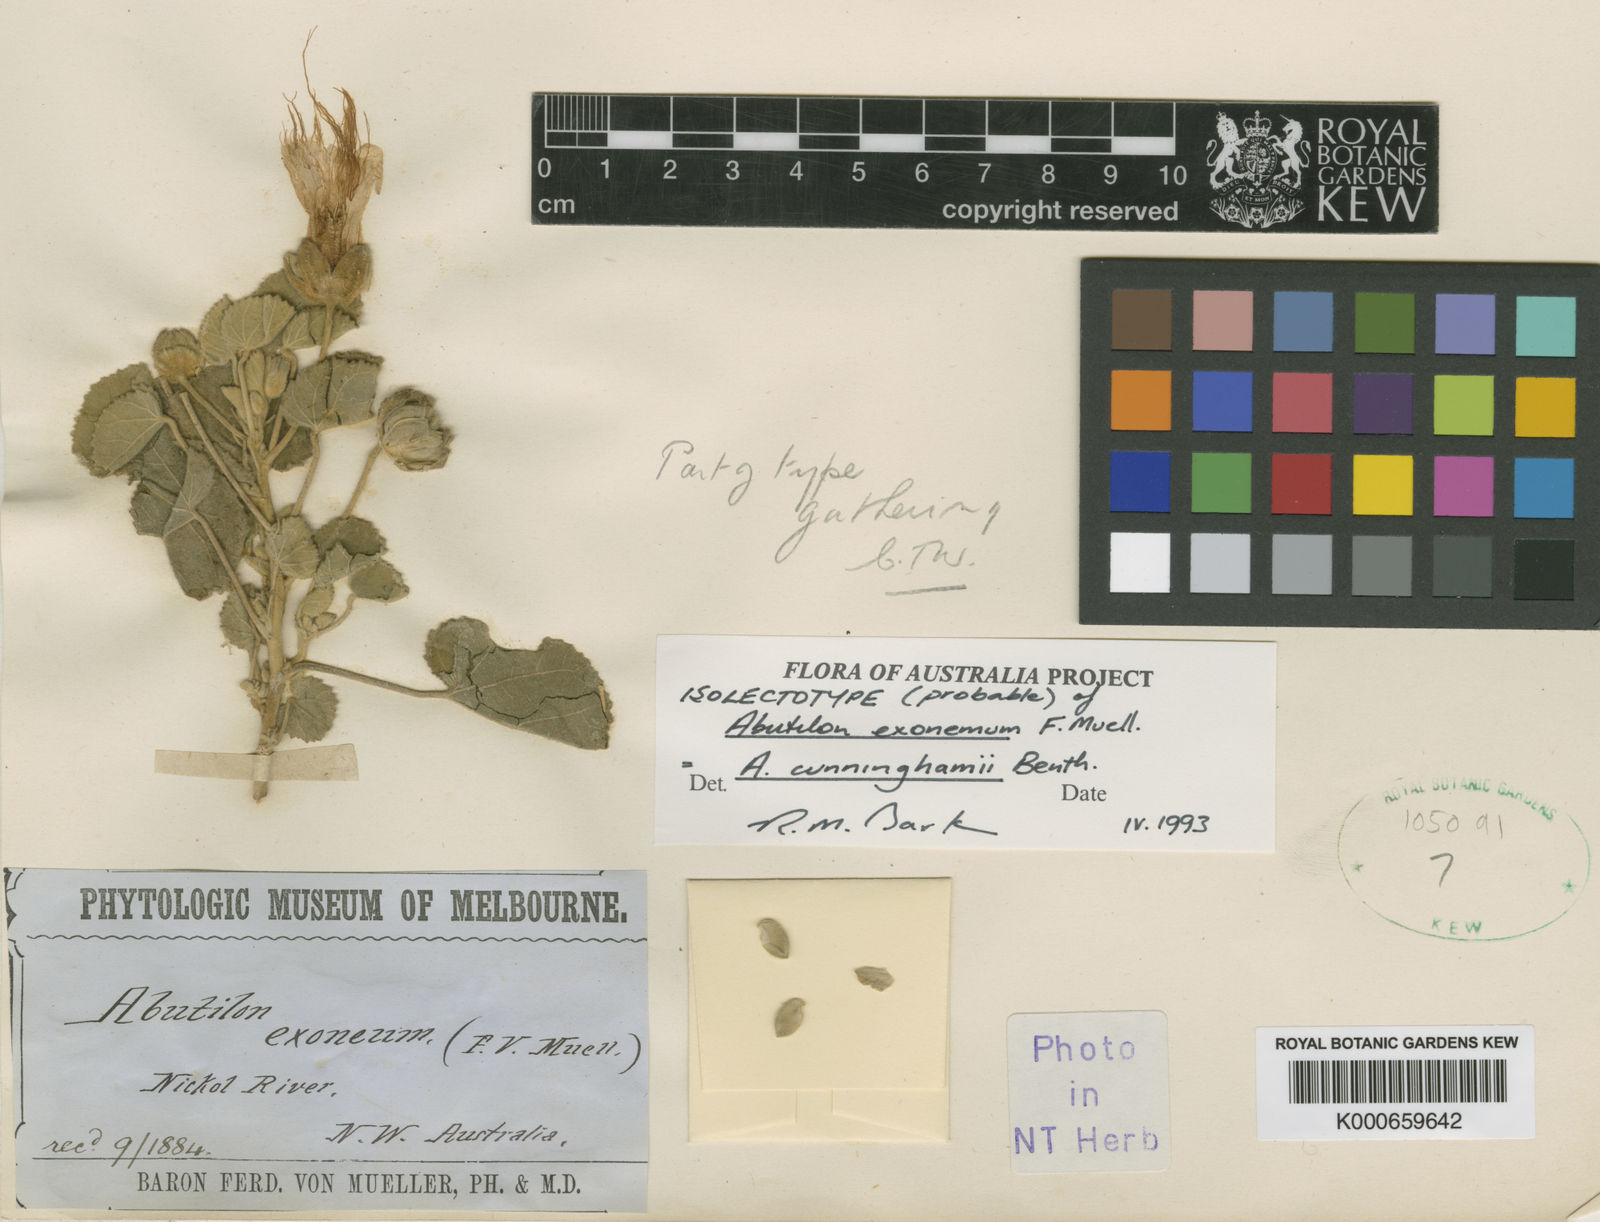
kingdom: Plantae
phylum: Tracheophyta
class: Magnoliopsida
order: Malvales
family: Malvaceae
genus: Abutilon
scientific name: Abutilon indicum
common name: Indian abutilon
